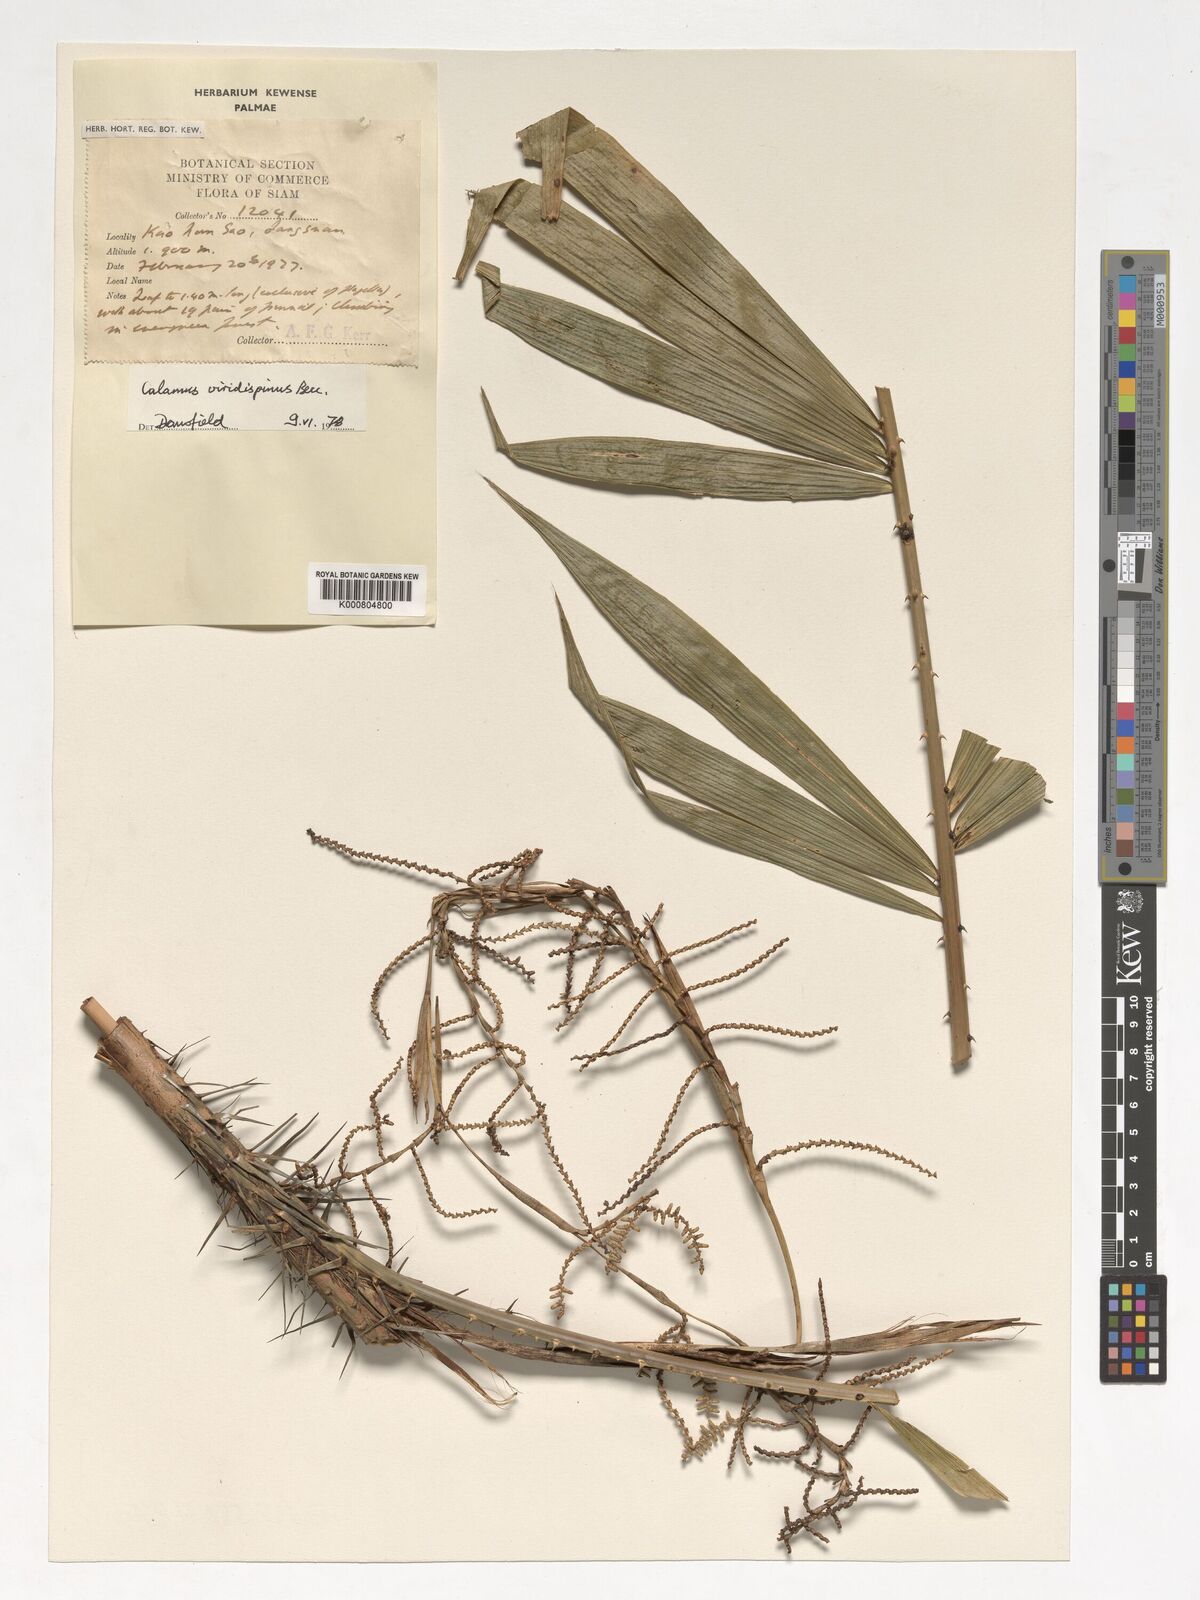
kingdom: Plantae
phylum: Tracheophyta
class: Liliopsida
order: Arecales
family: Arecaceae
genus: Calamus
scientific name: Calamus helferianus
